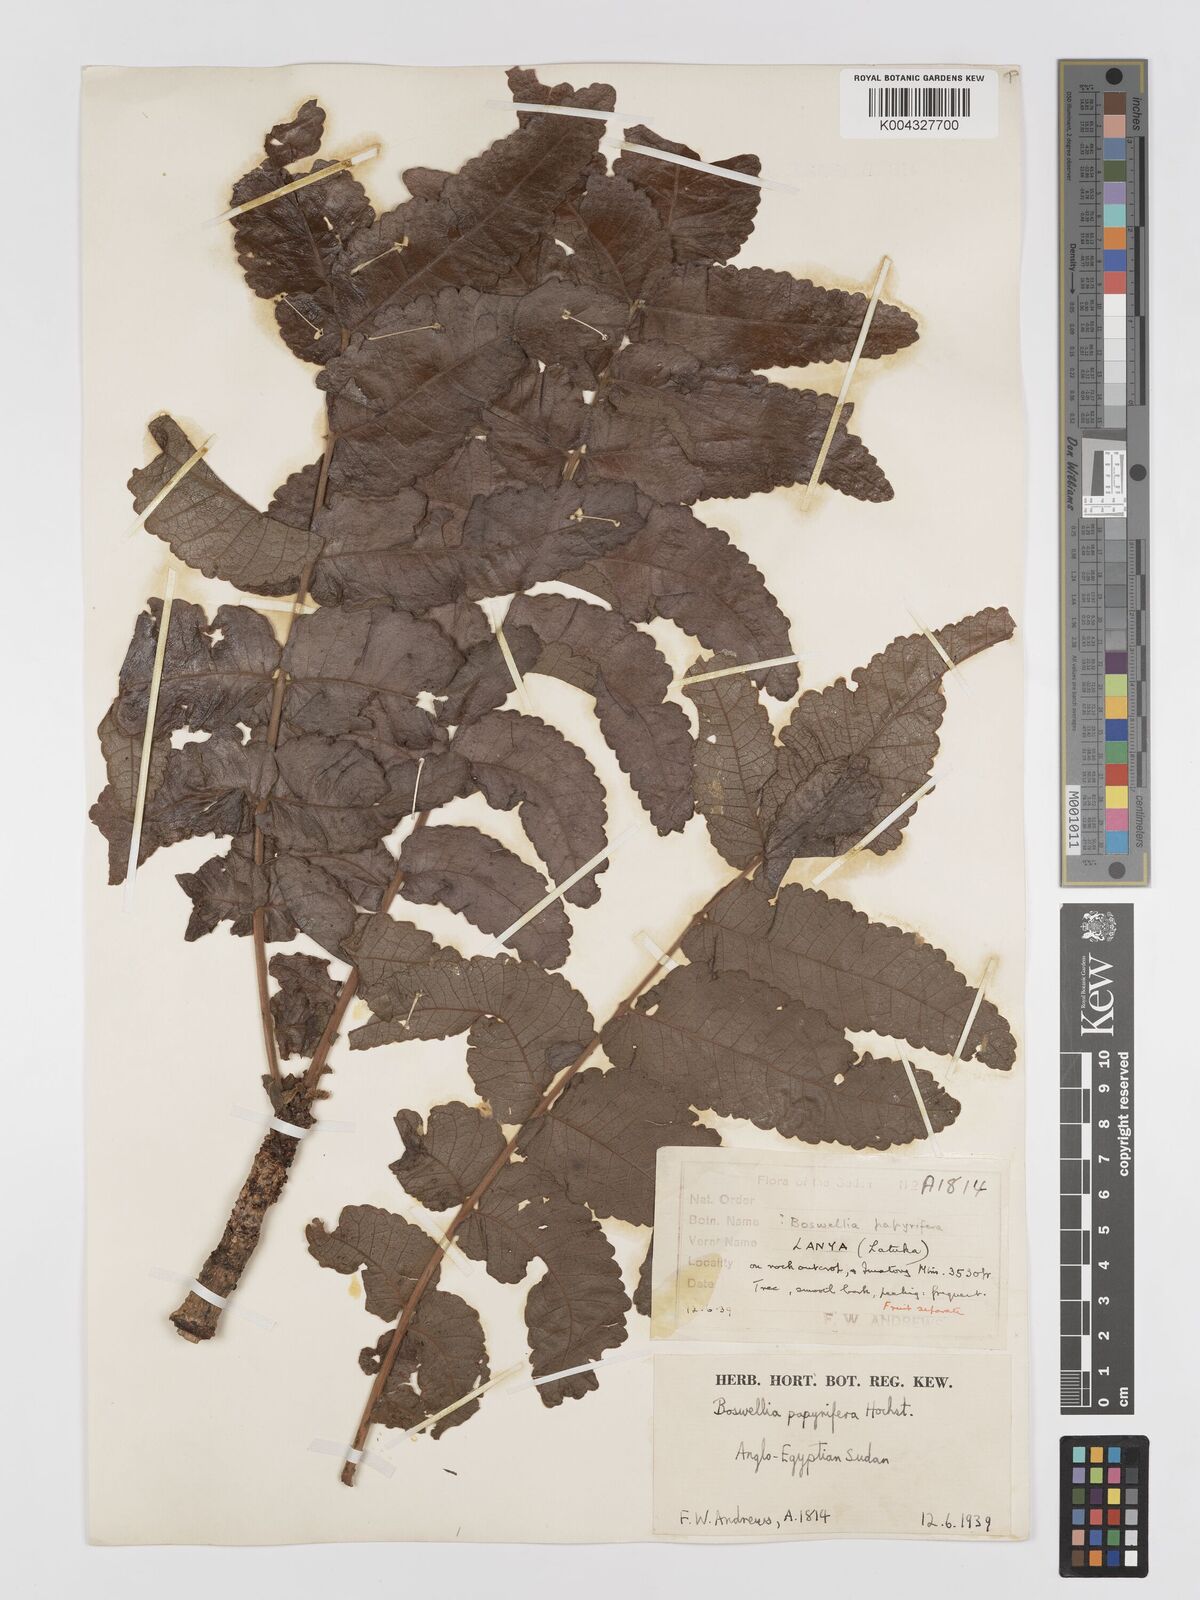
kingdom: Plantae
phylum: Tracheophyta
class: Magnoliopsida
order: Sapindales
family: Burseraceae
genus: Boswellia
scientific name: Boswellia papyrifera
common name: Sudanese frankincense
